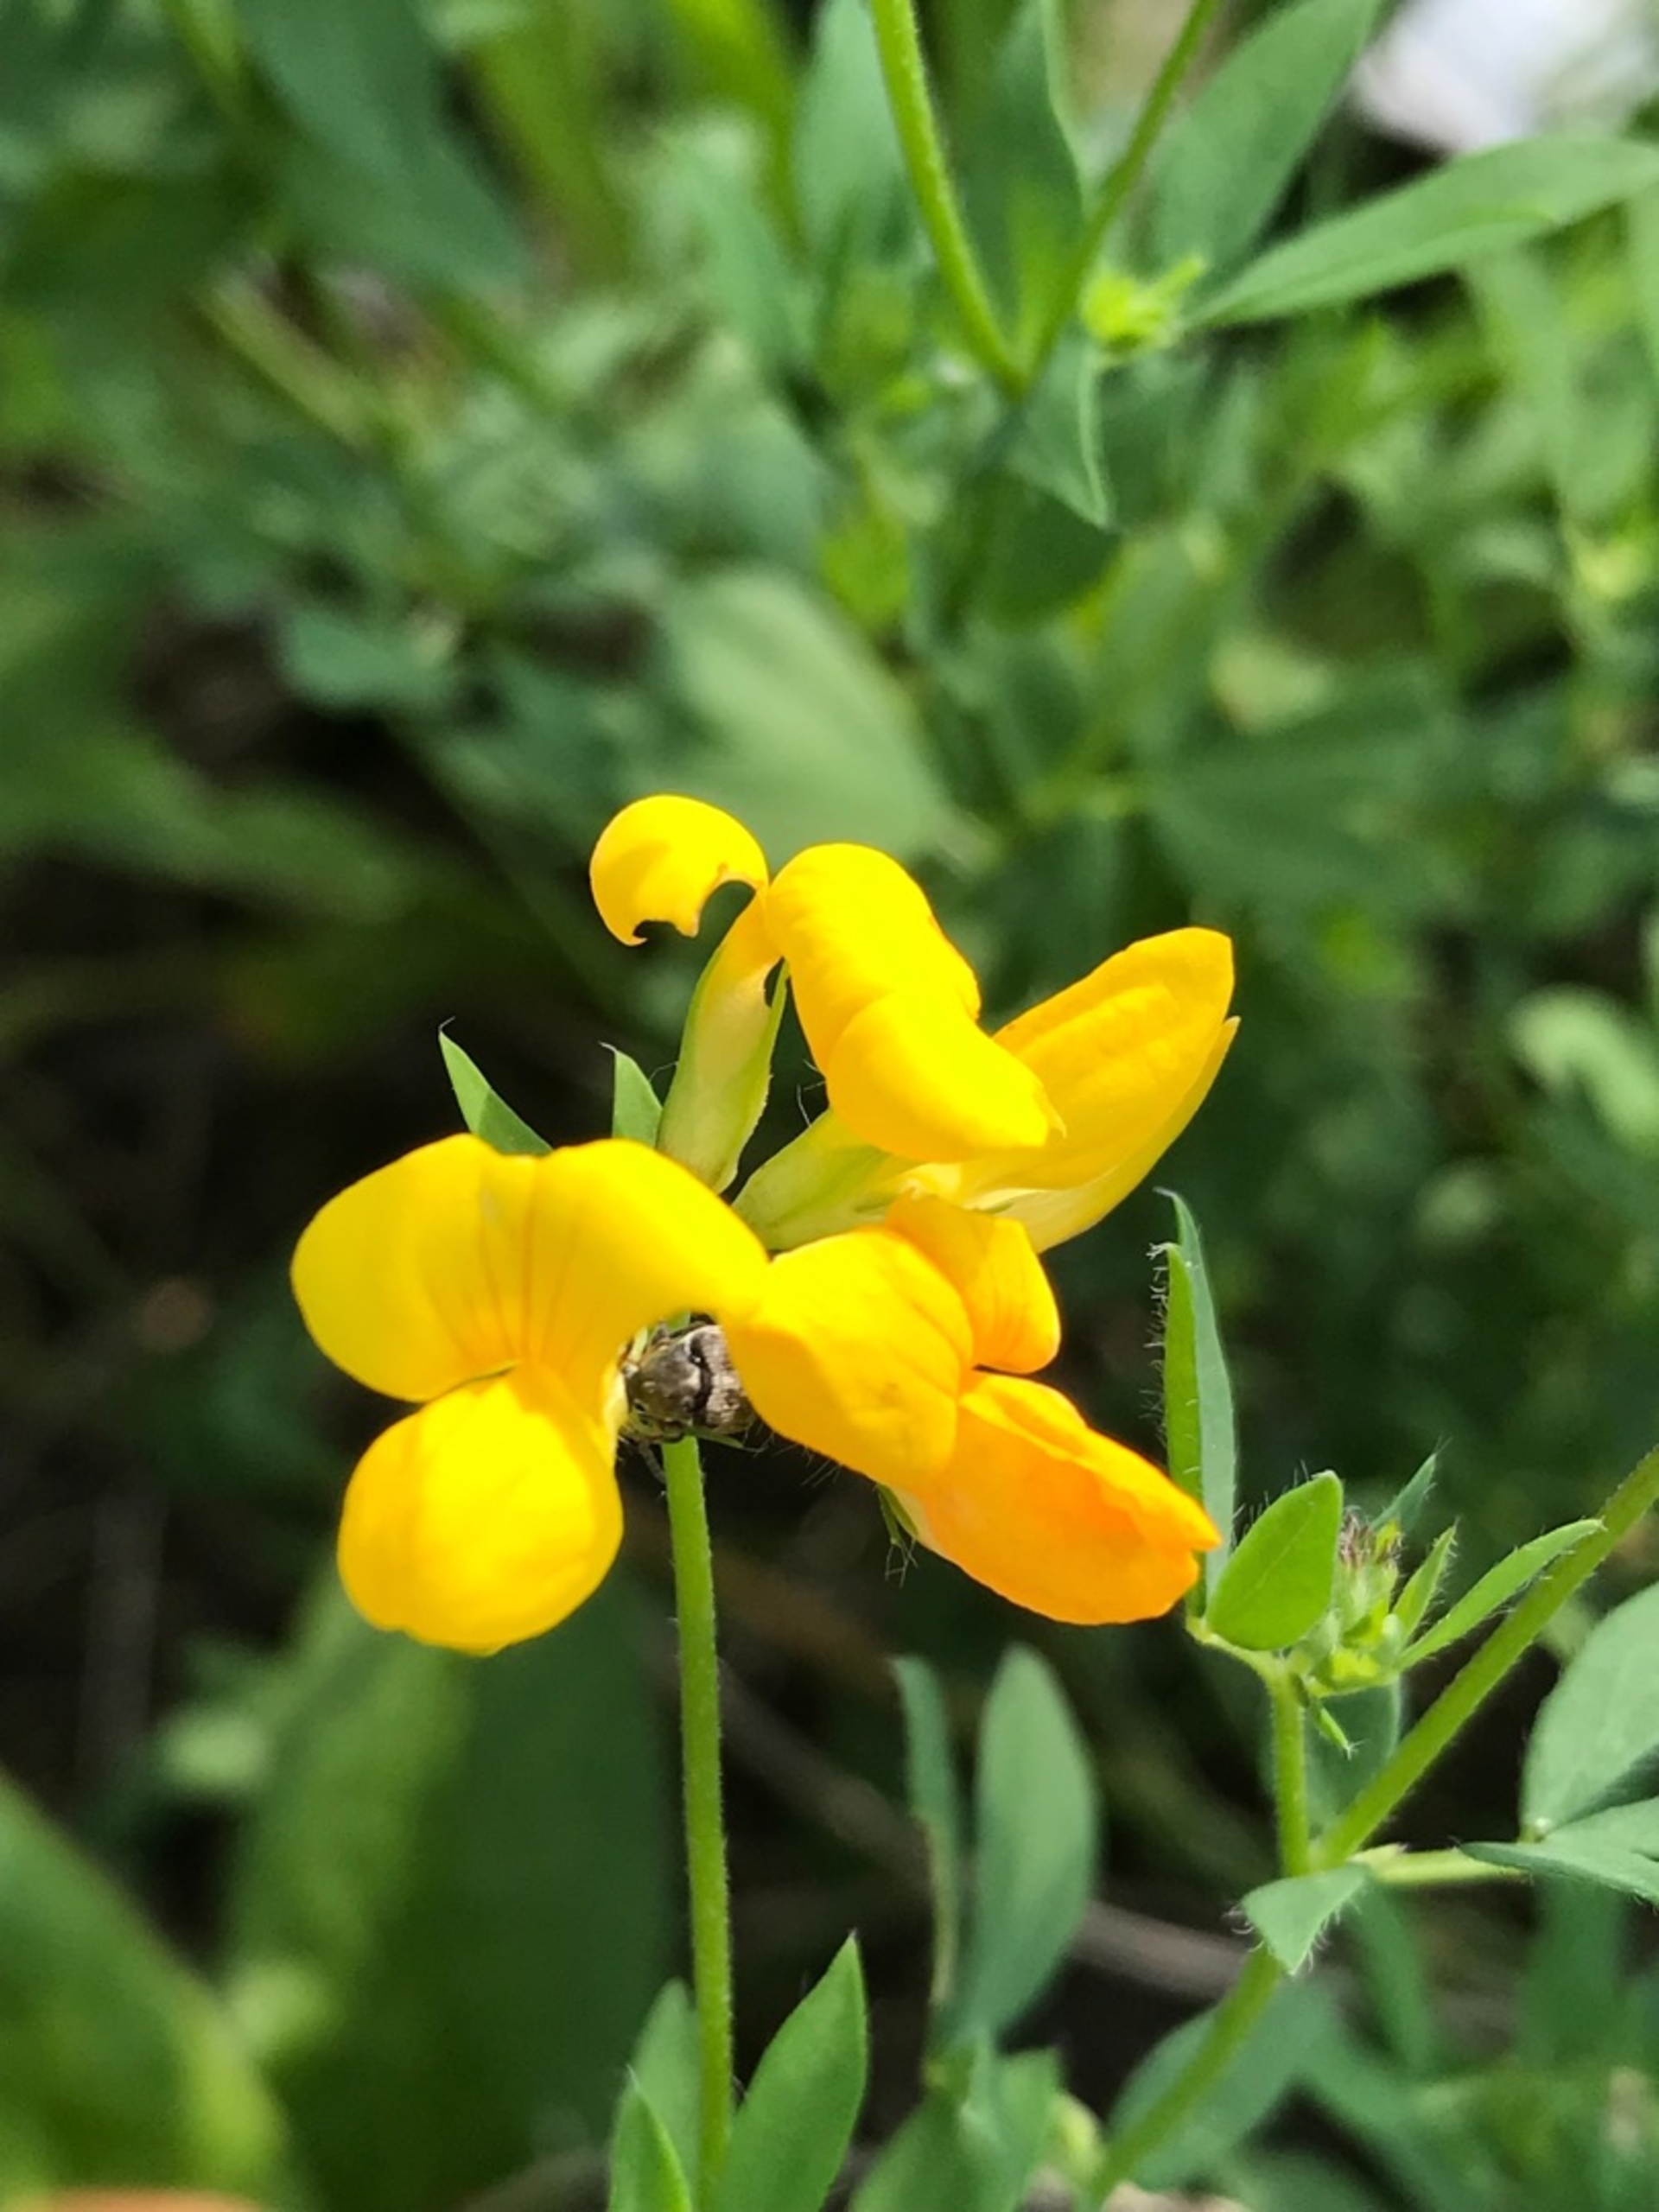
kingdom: Plantae
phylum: Tracheophyta
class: Magnoliopsida
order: Fabales
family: Fabaceae
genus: Lotus
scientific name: Lotus corniculatus
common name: Almindelig kællingetand
